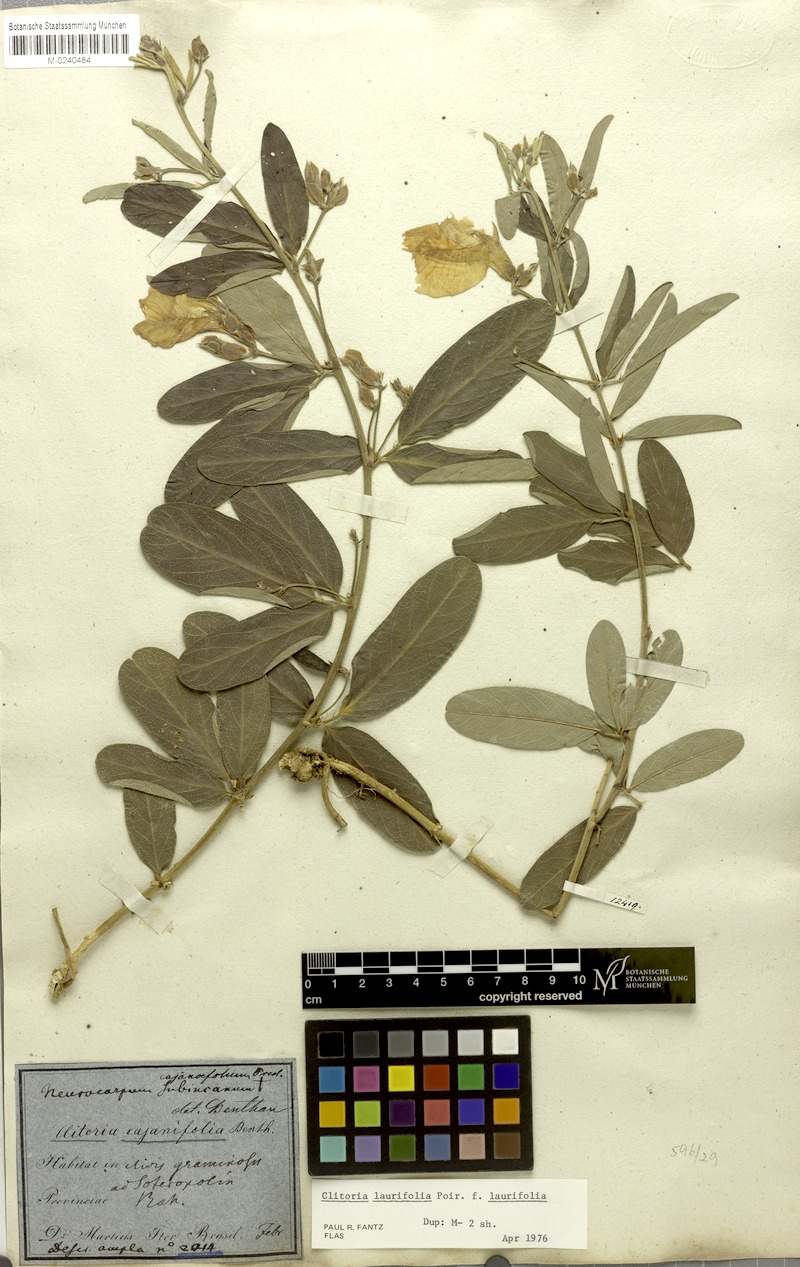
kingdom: Plantae
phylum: Tracheophyta
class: Magnoliopsida
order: Fabales
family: Fabaceae
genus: Clitoria
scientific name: Clitoria laurifolia
